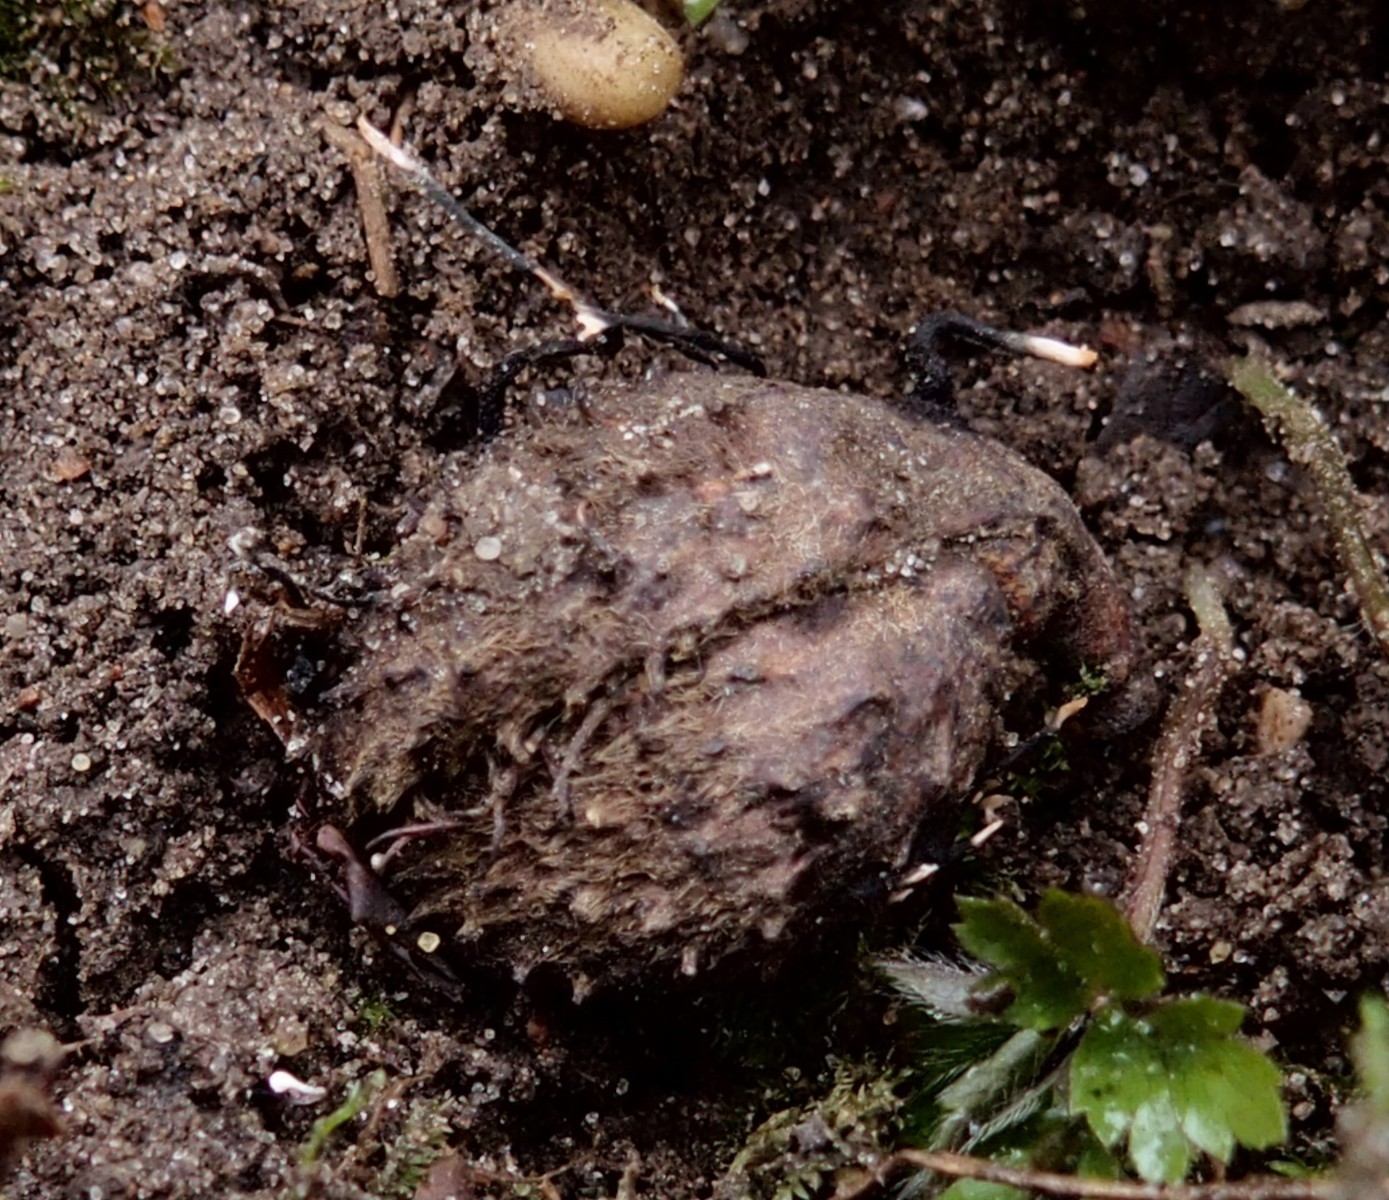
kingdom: Fungi
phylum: Ascomycota
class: Sordariomycetes
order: Xylariales
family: Xylariaceae
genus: Xylaria
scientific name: Xylaria carpophila
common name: bogskål-stødsvamp
